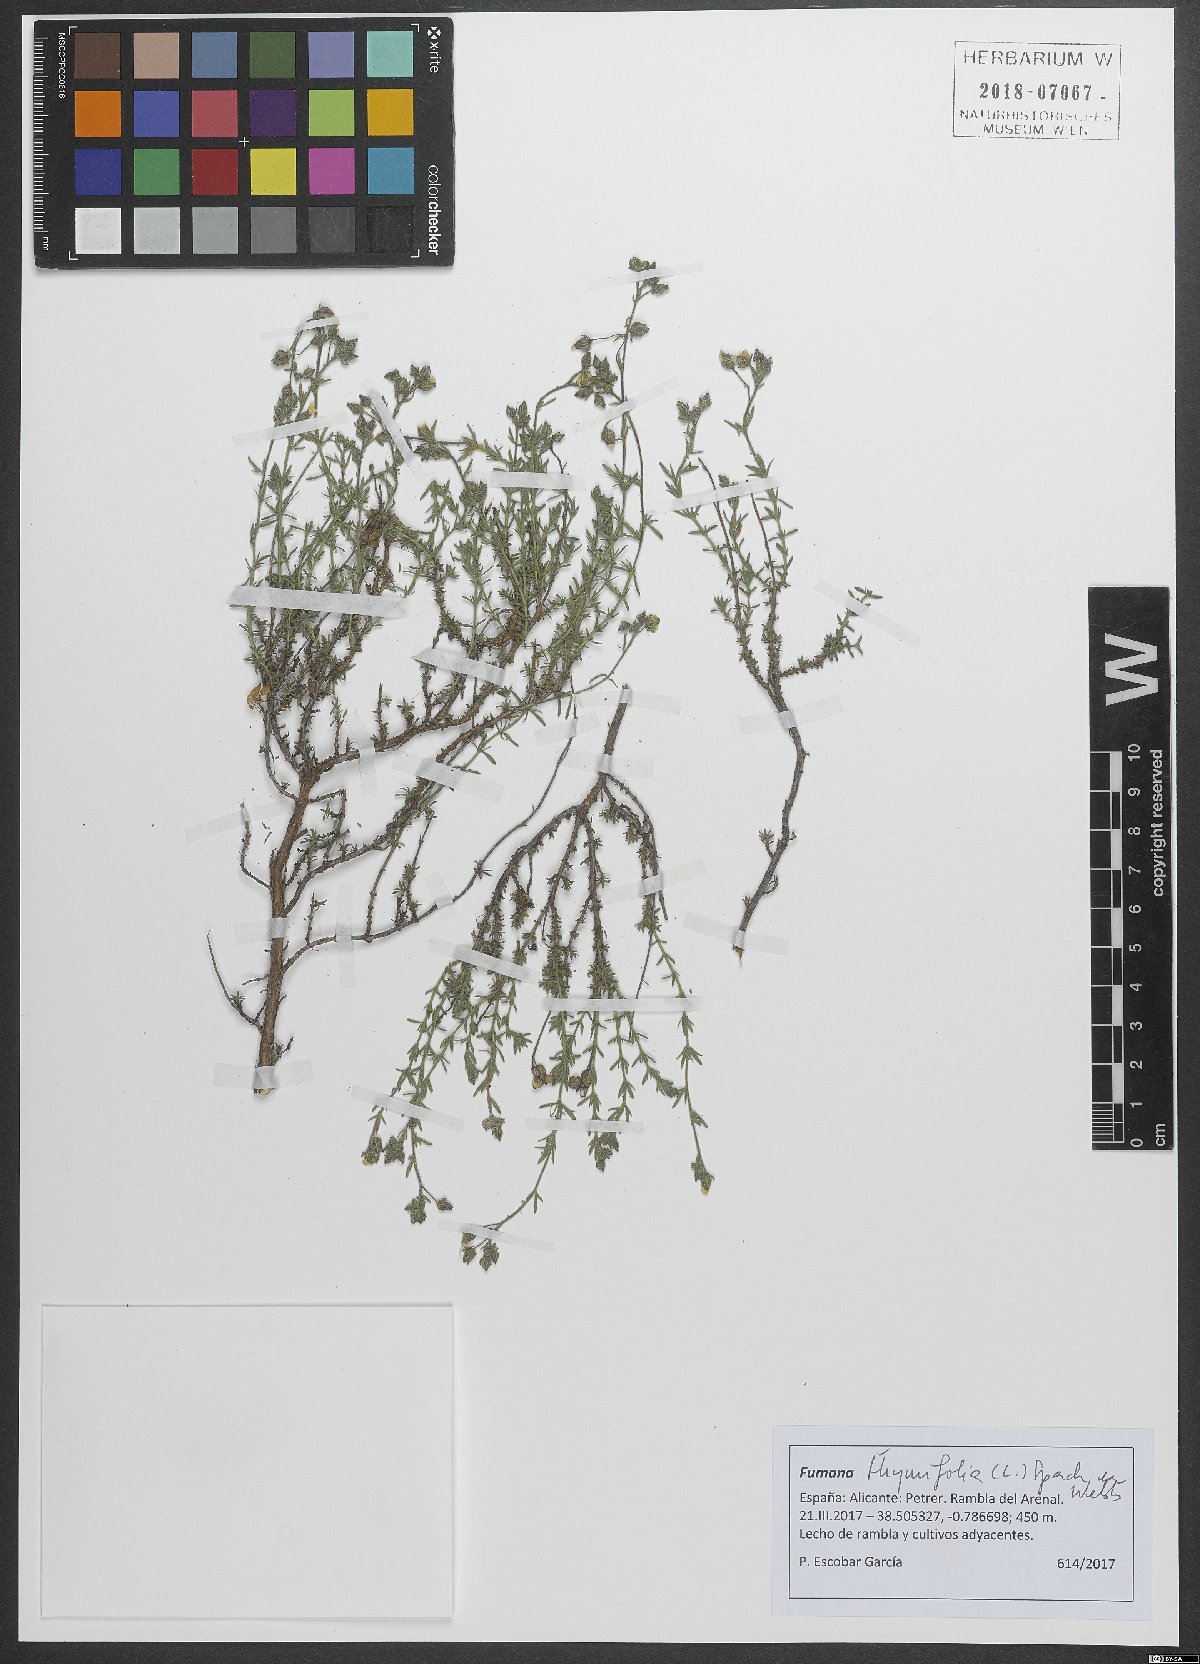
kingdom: Plantae
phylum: Tracheophyta
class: Magnoliopsida
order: Malvales
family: Cistaceae
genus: Fumana
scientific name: Fumana thymifolia
